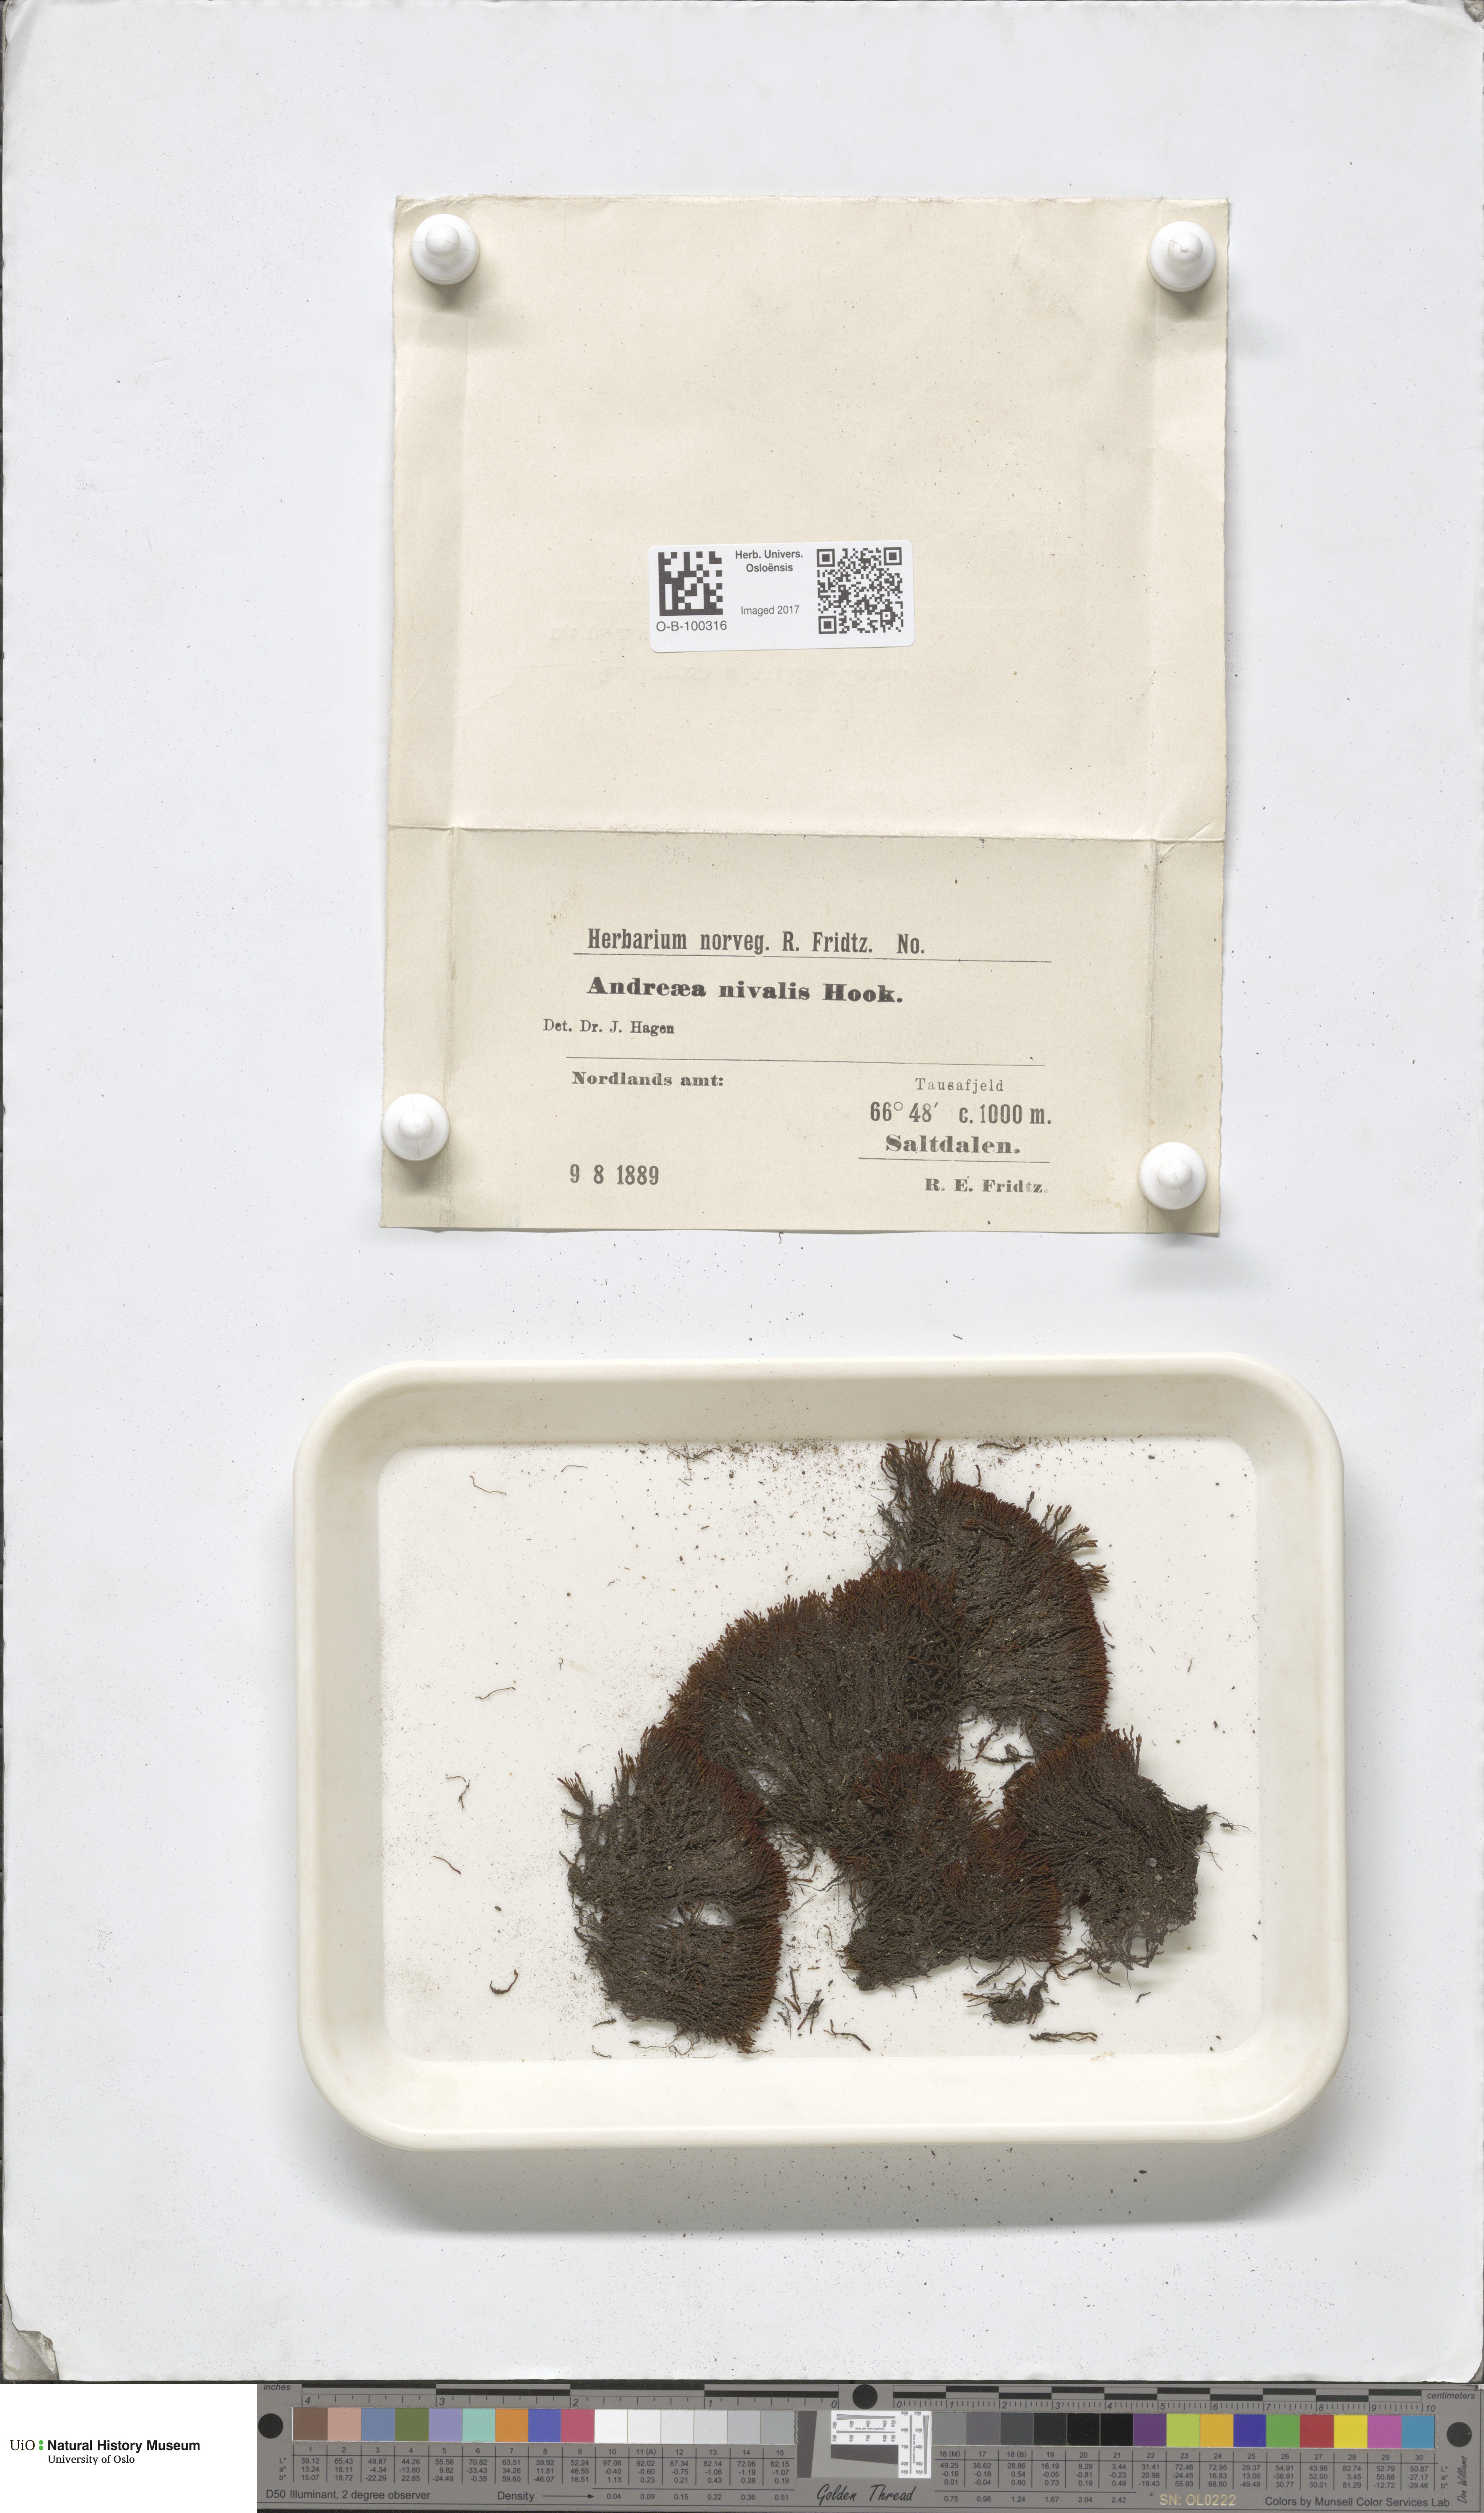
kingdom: Plantae
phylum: Bryophyta
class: Andreaeopsida
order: Andreaeales
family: Andreaeaceae
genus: Andreaea
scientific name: Andreaea nivalis
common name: Snow rock moss
